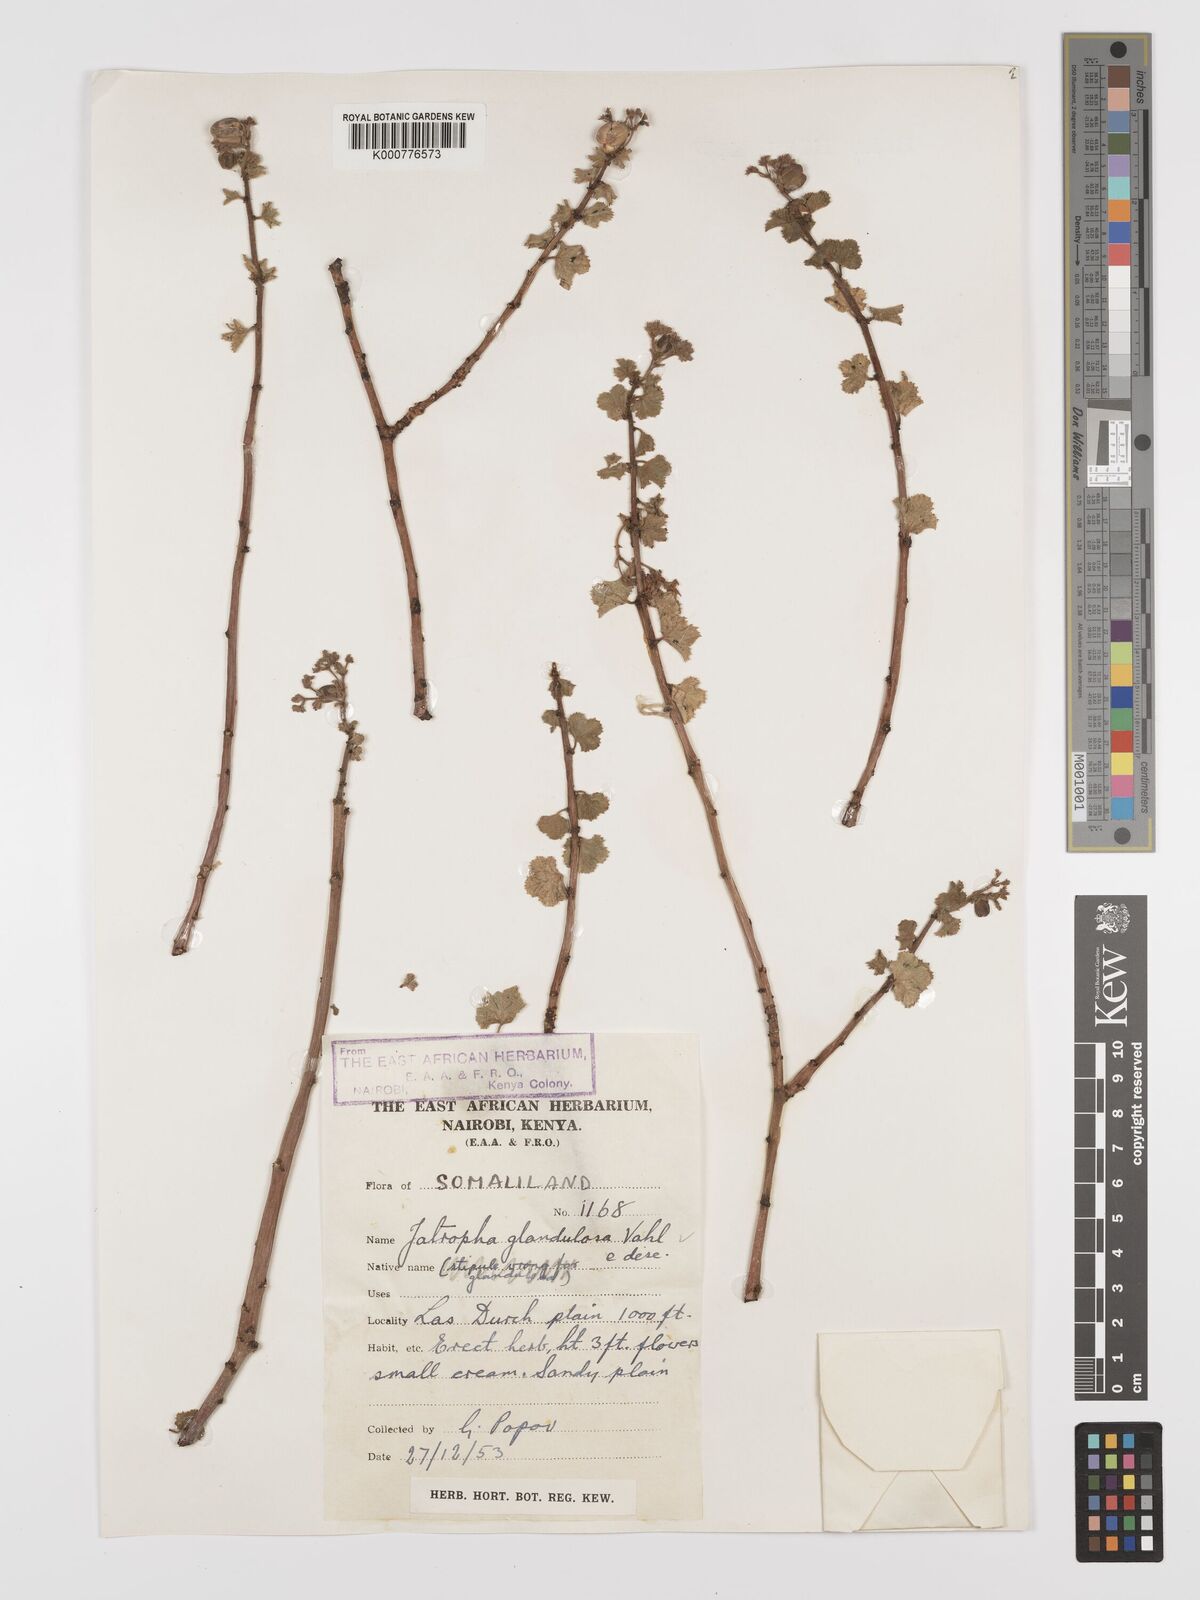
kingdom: Plantae
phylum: Tracheophyta
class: Magnoliopsida
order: Malpighiales
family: Euphorbiaceae
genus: Jatropha
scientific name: Jatropha pelargoniifolia
